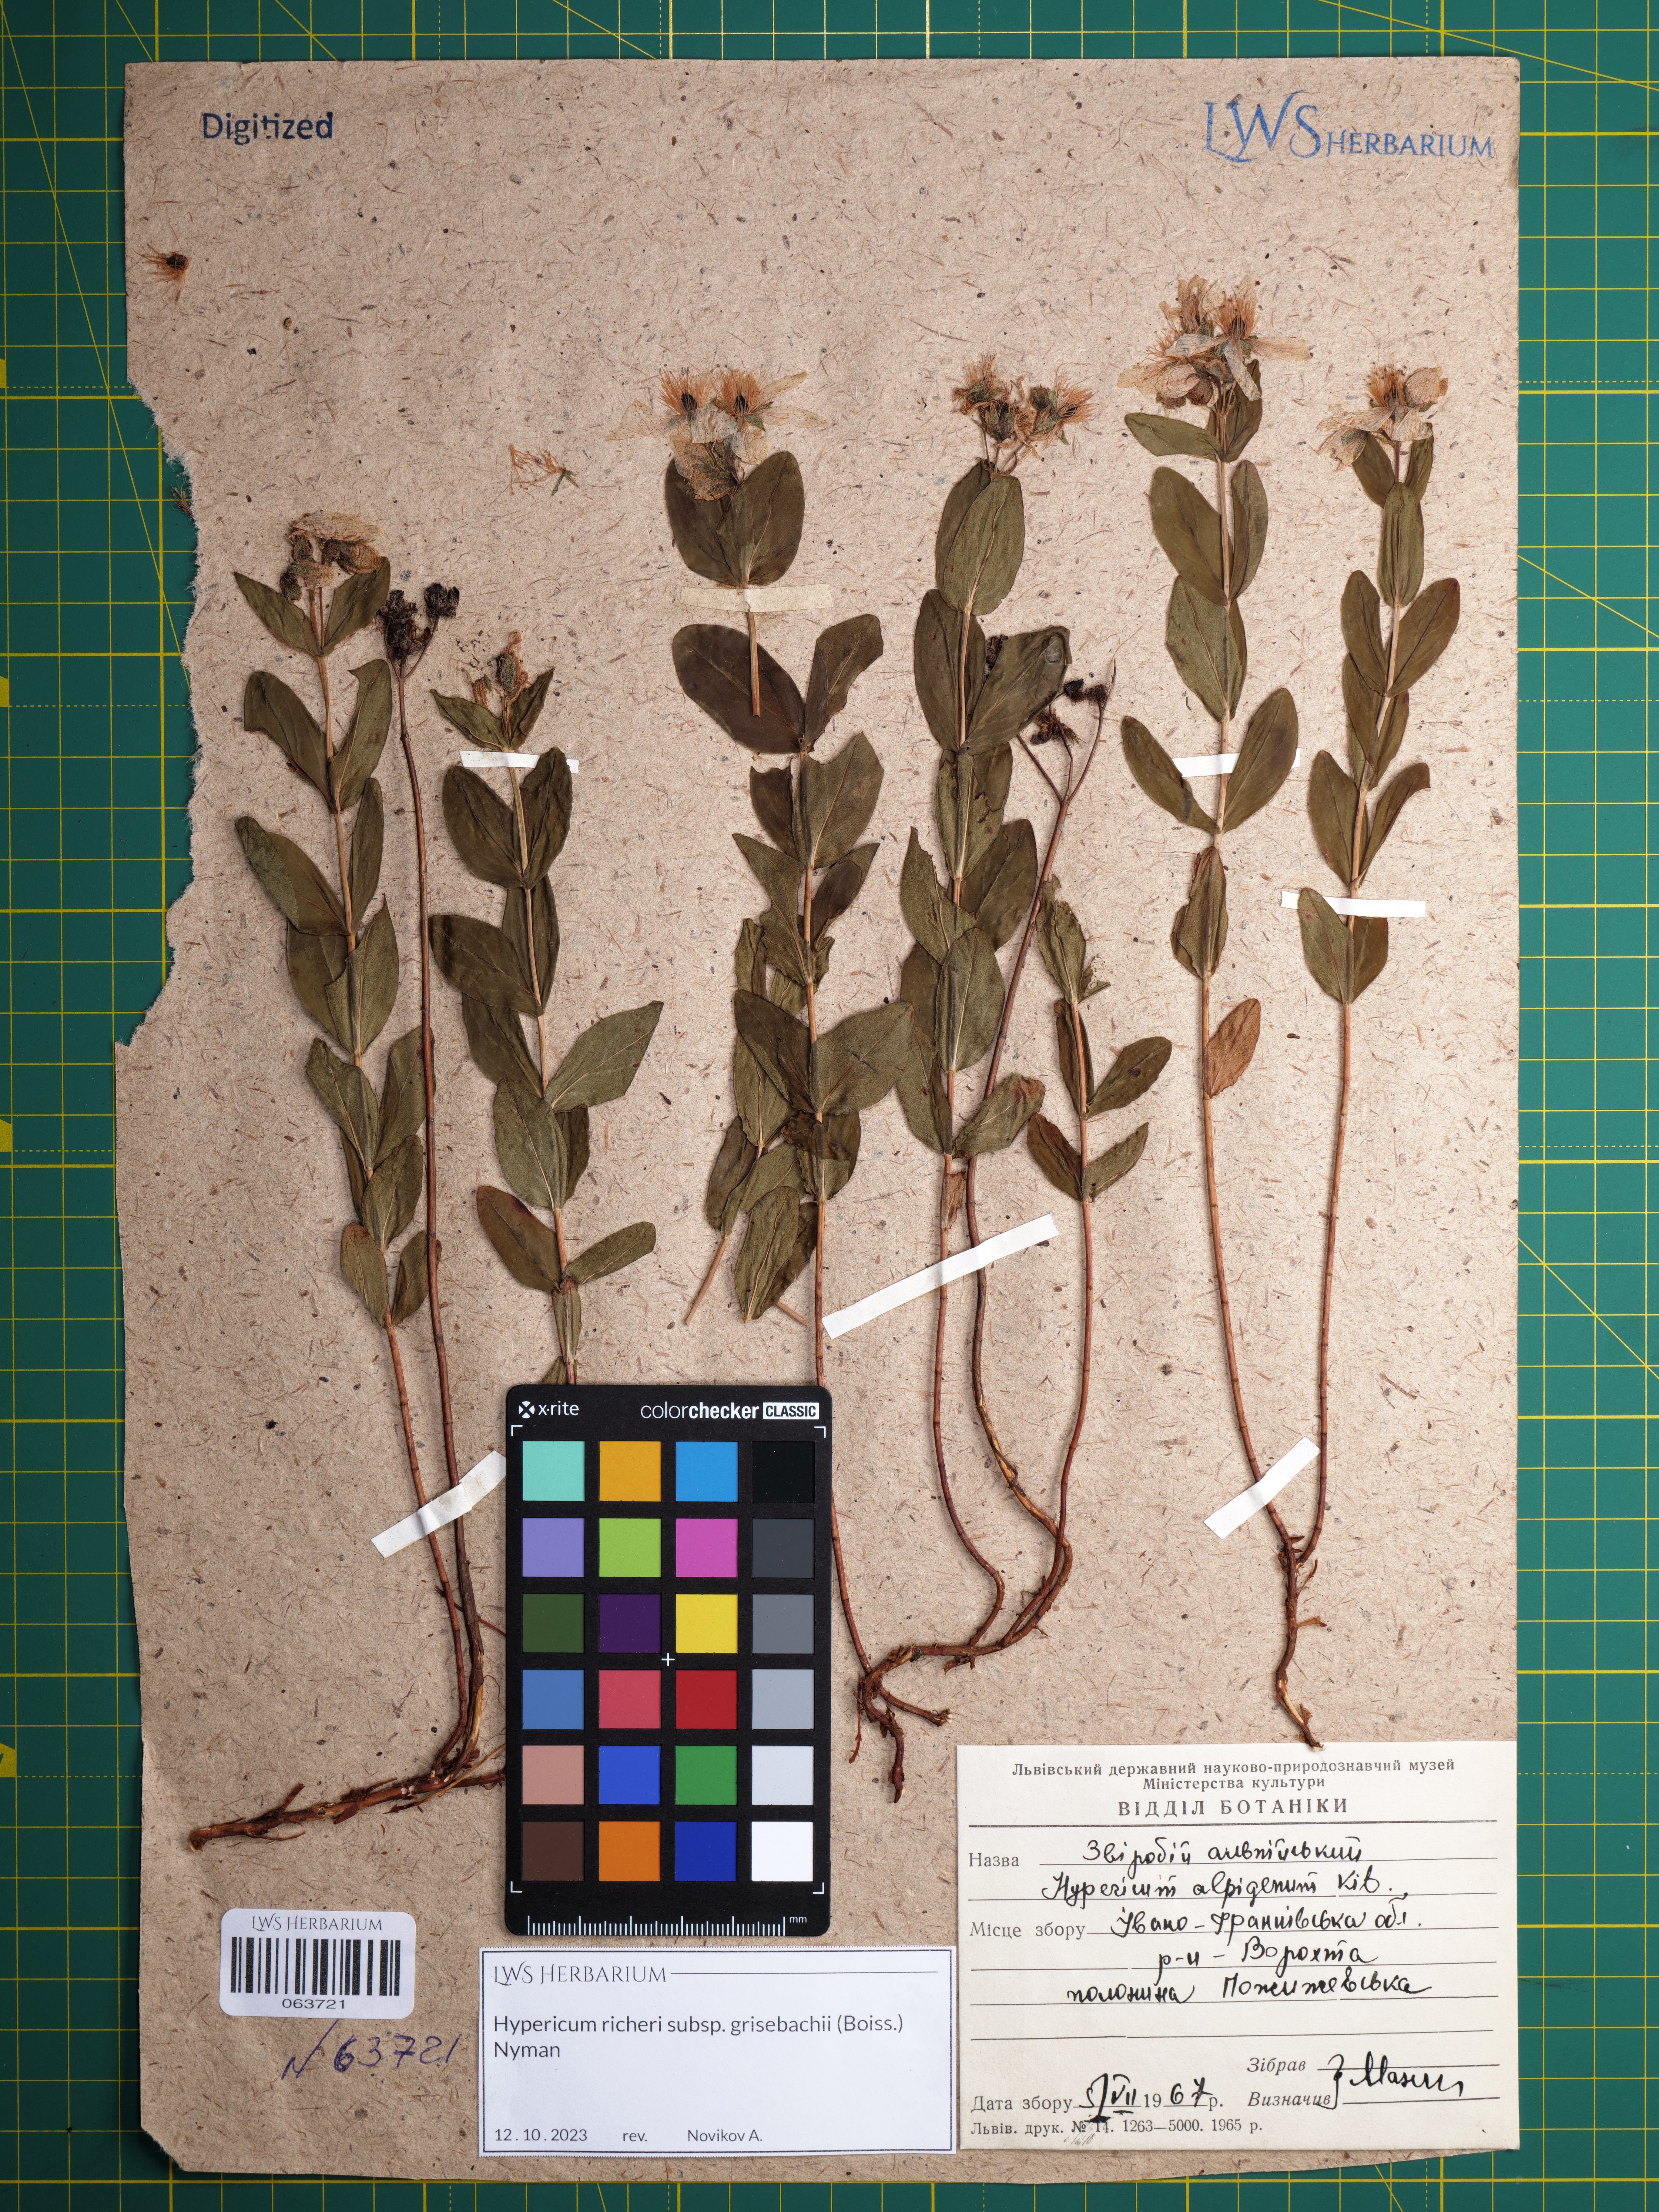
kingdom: Plantae
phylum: Tracheophyta
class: Magnoliopsida
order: Malpighiales
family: Hypericaceae
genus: Hypericum
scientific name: Hypericum richeri
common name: Alpine st john's-wort
